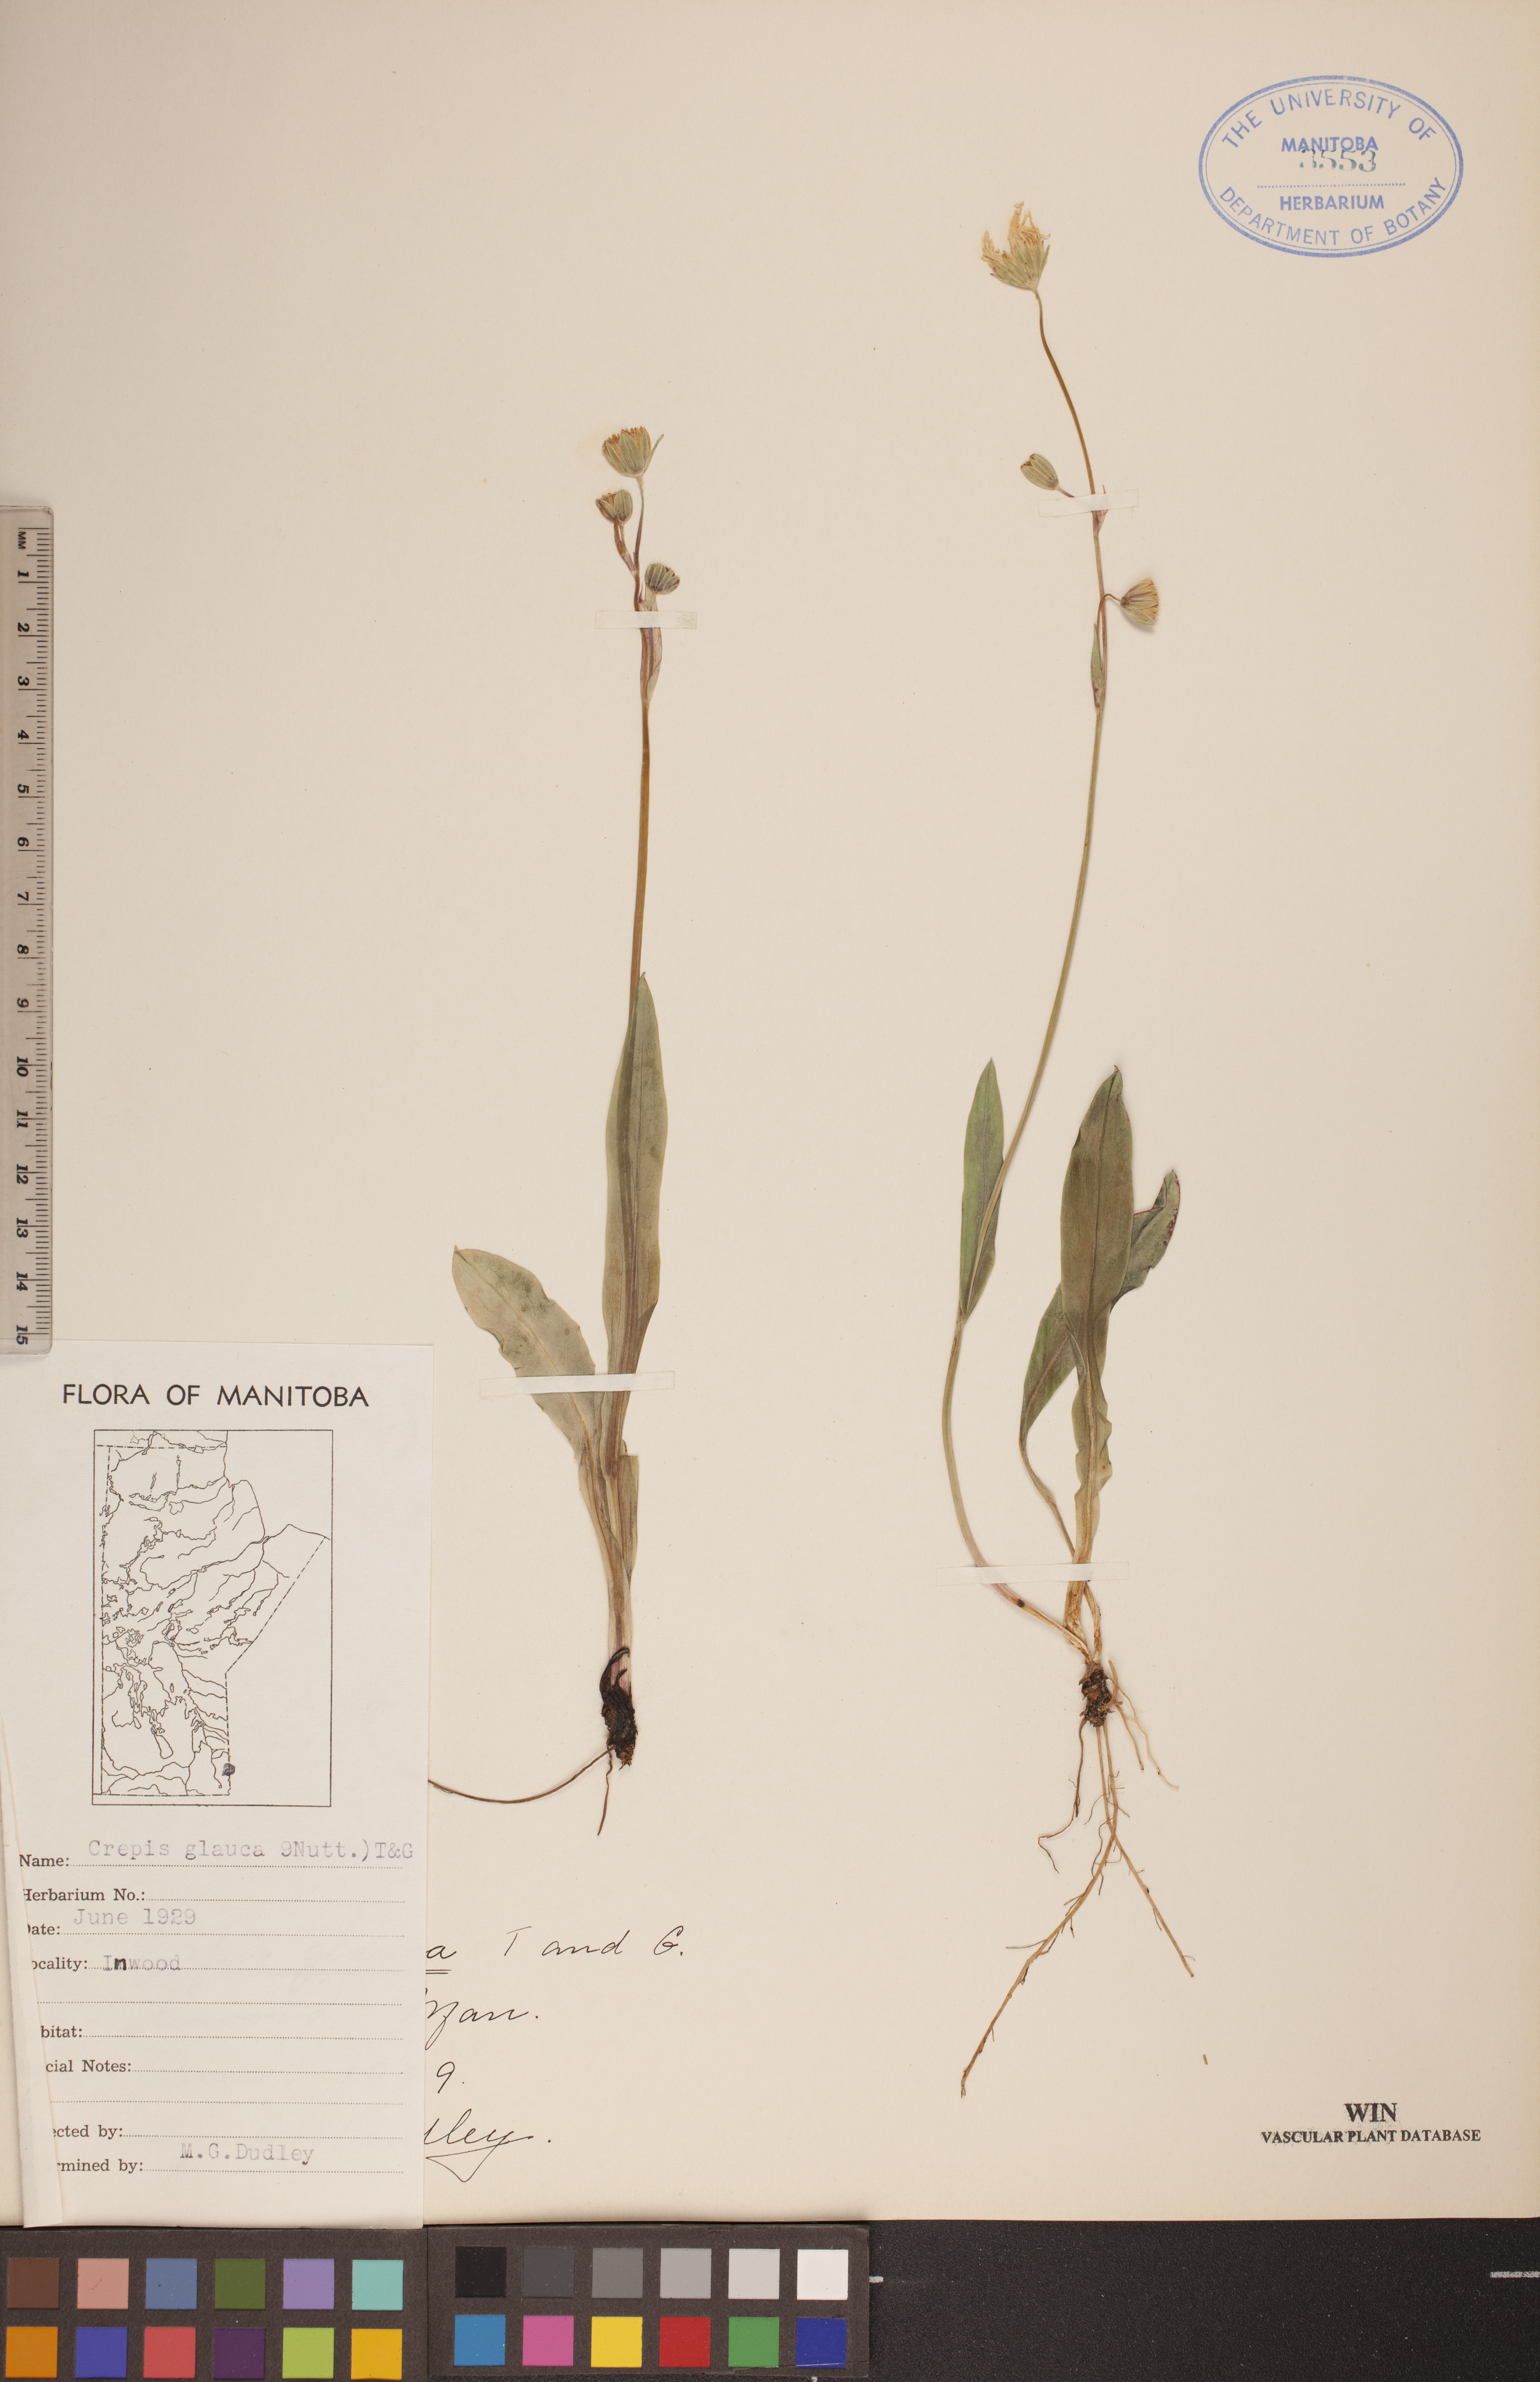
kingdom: Plantae
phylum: Tracheophyta
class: Magnoliopsida
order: Asterales
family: Asteraceae
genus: Crepis
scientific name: Crepis runcinata
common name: Dandelion hawksbeard
